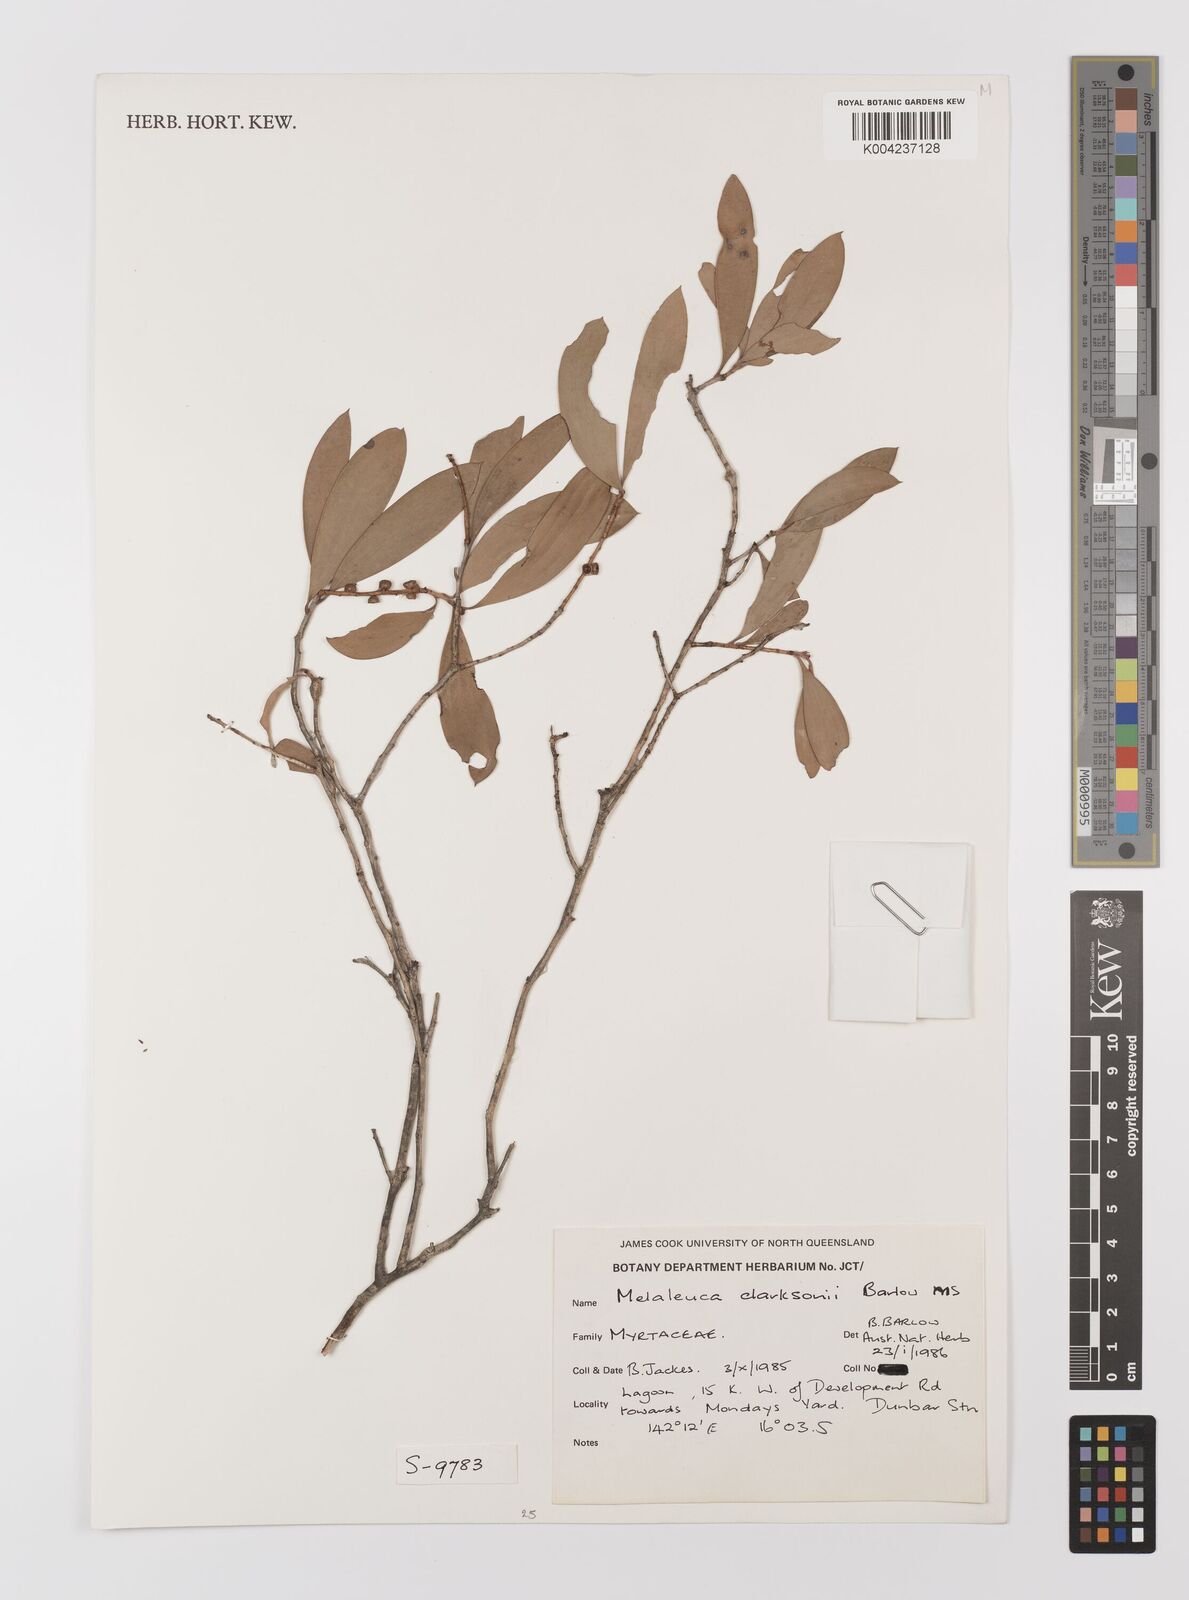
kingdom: Plantae
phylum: Tracheophyta
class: Magnoliopsida
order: Myrtales
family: Myrtaceae
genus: Melaleuca
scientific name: Melaleuca clarksonii
